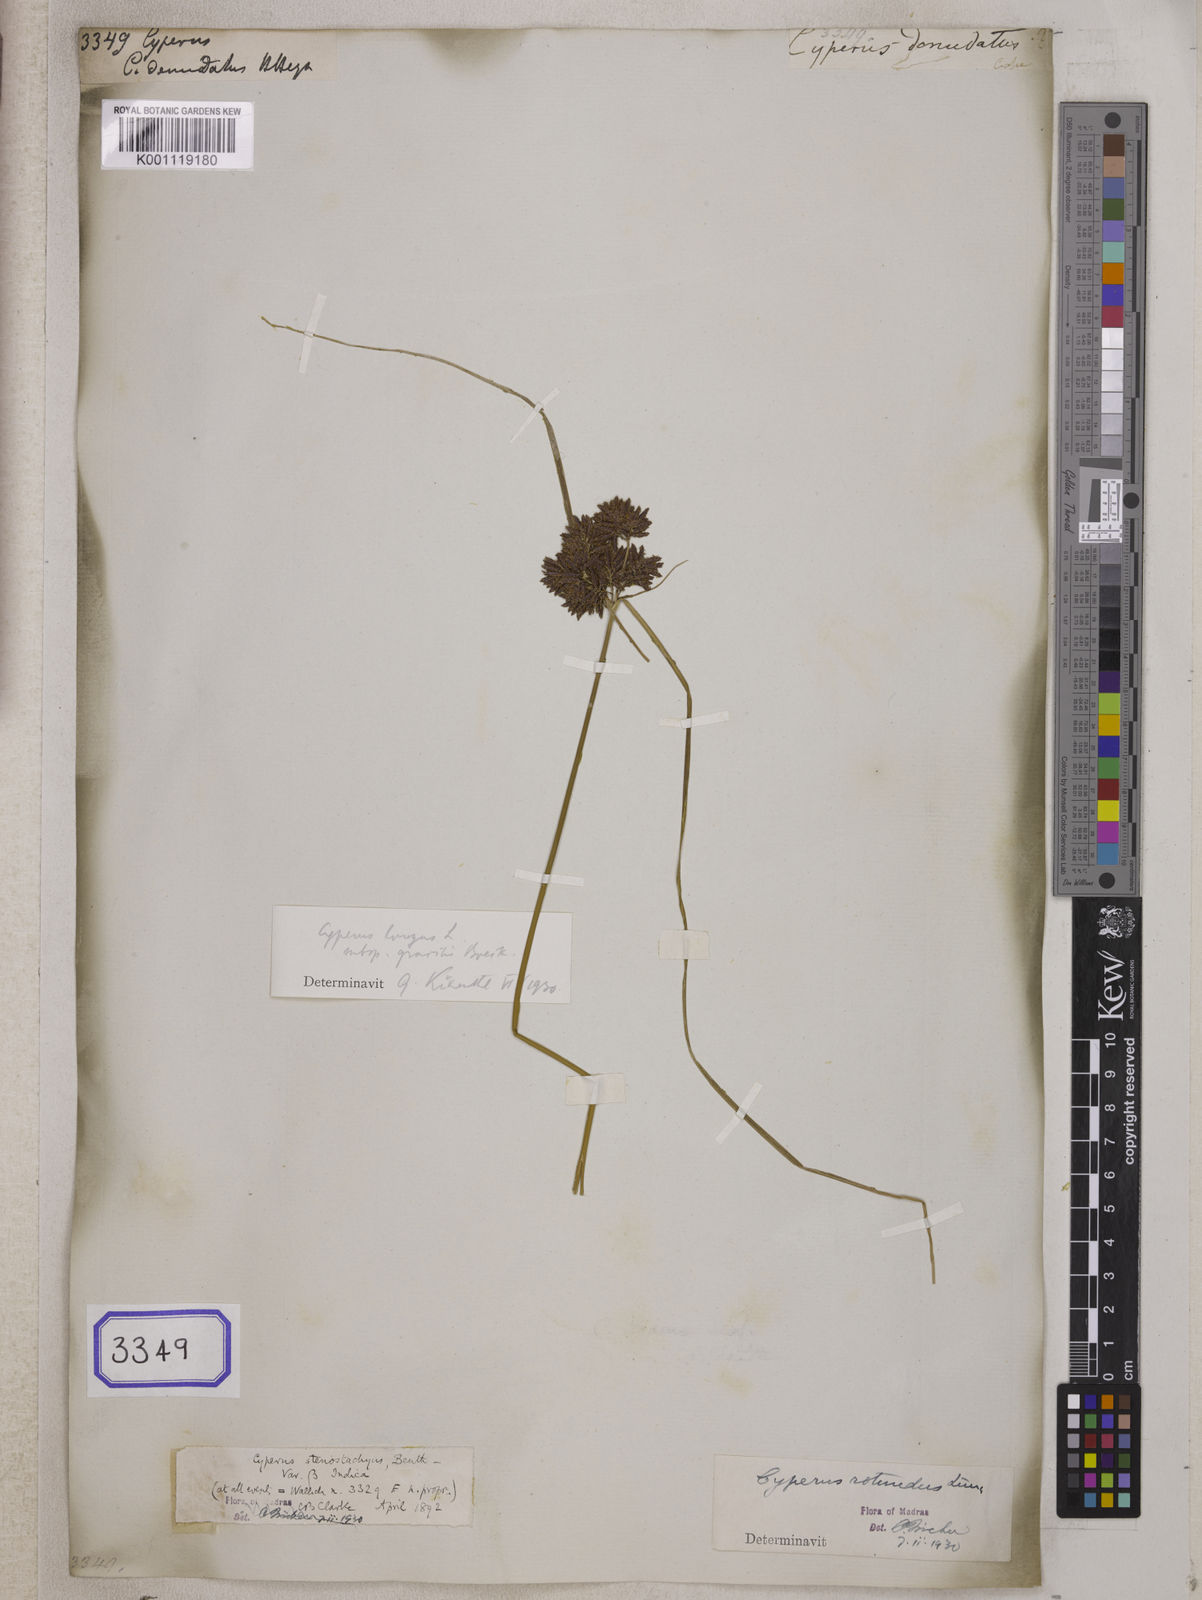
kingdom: Plantae
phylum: Tracheophyta
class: Liliopsida
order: Poales
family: Cyperaceae
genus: Cyperus
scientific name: Cyperus
